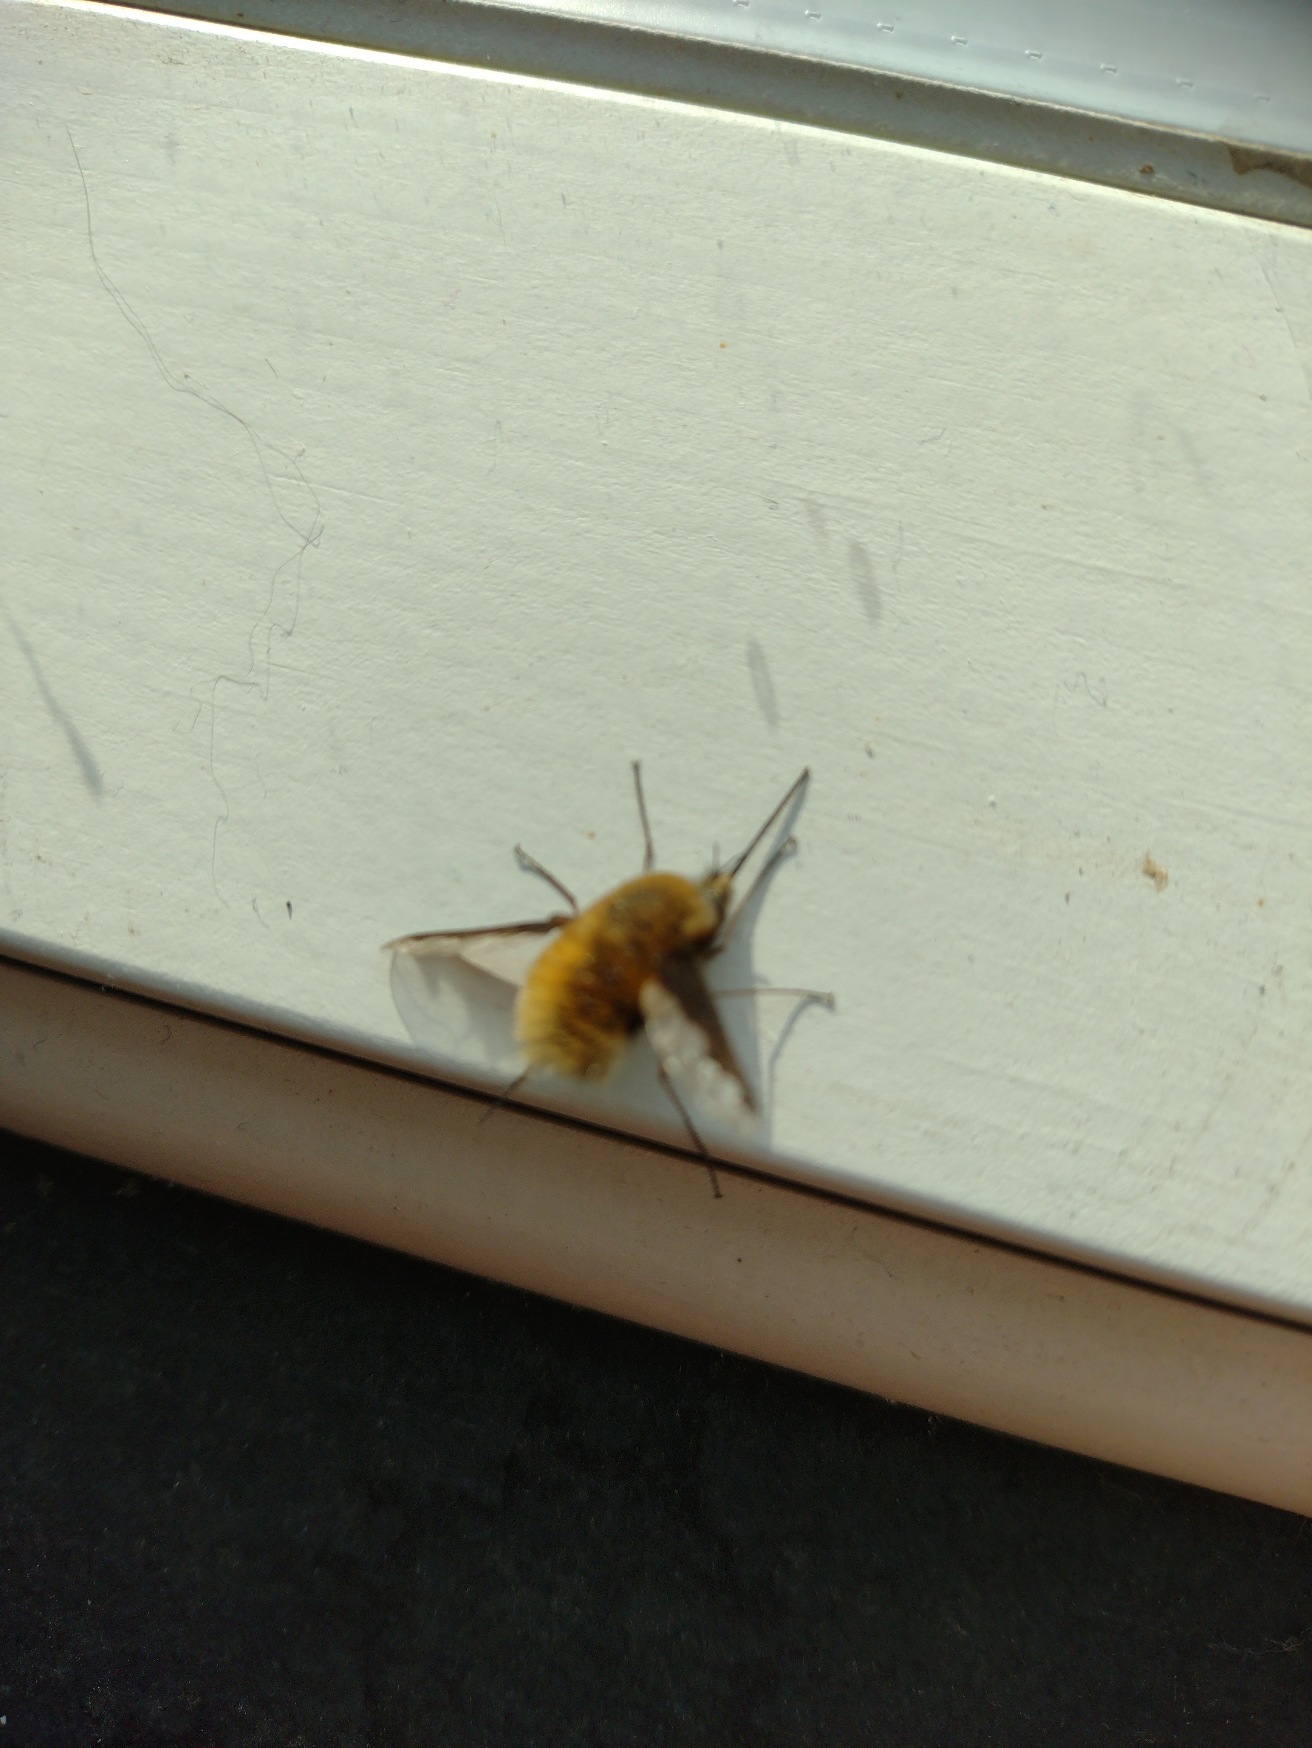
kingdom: Animalia
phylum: Arthropoda
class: Insecta
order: Diptera
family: Bombyliidae
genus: Bombylius
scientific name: Bombylius major
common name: Stor humleflue
